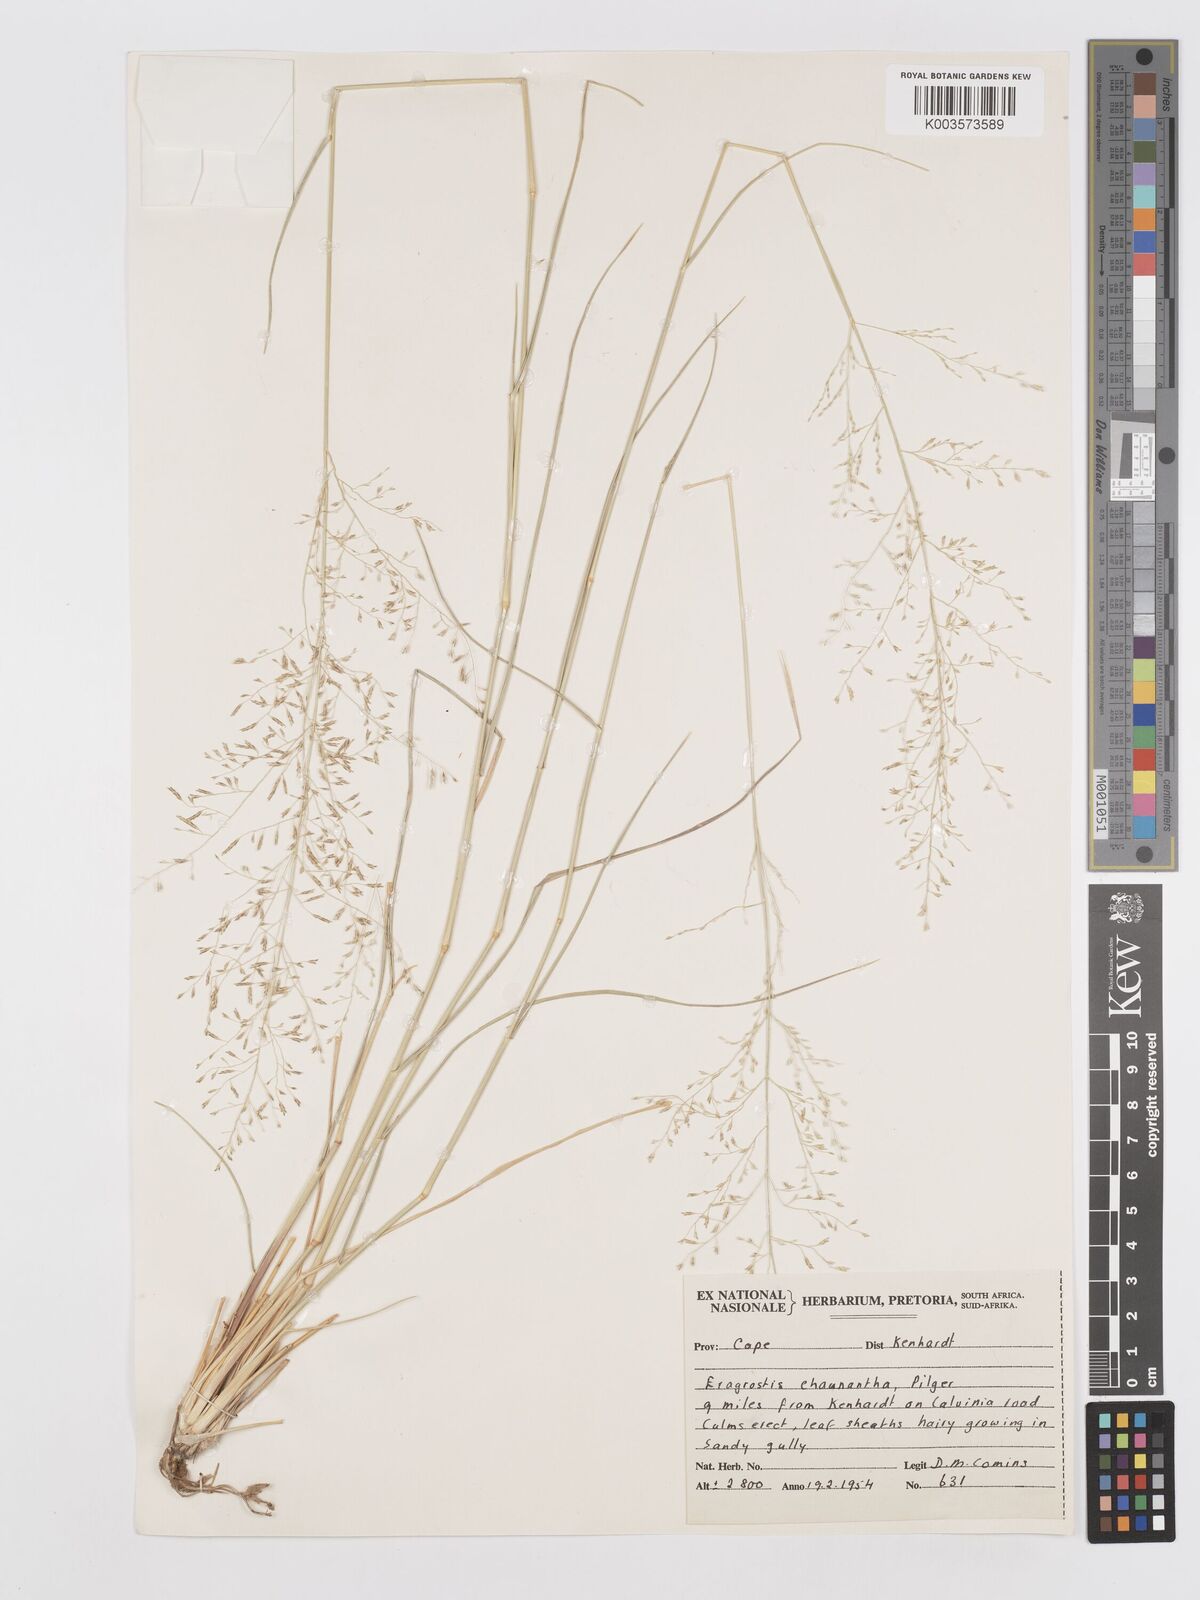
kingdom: Plantae
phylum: Tracheophyta
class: Liliopsida
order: Poales
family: Poaceae
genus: Eragrostis
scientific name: Eragrostis lehmanniana
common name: Lehmann lovegrass
